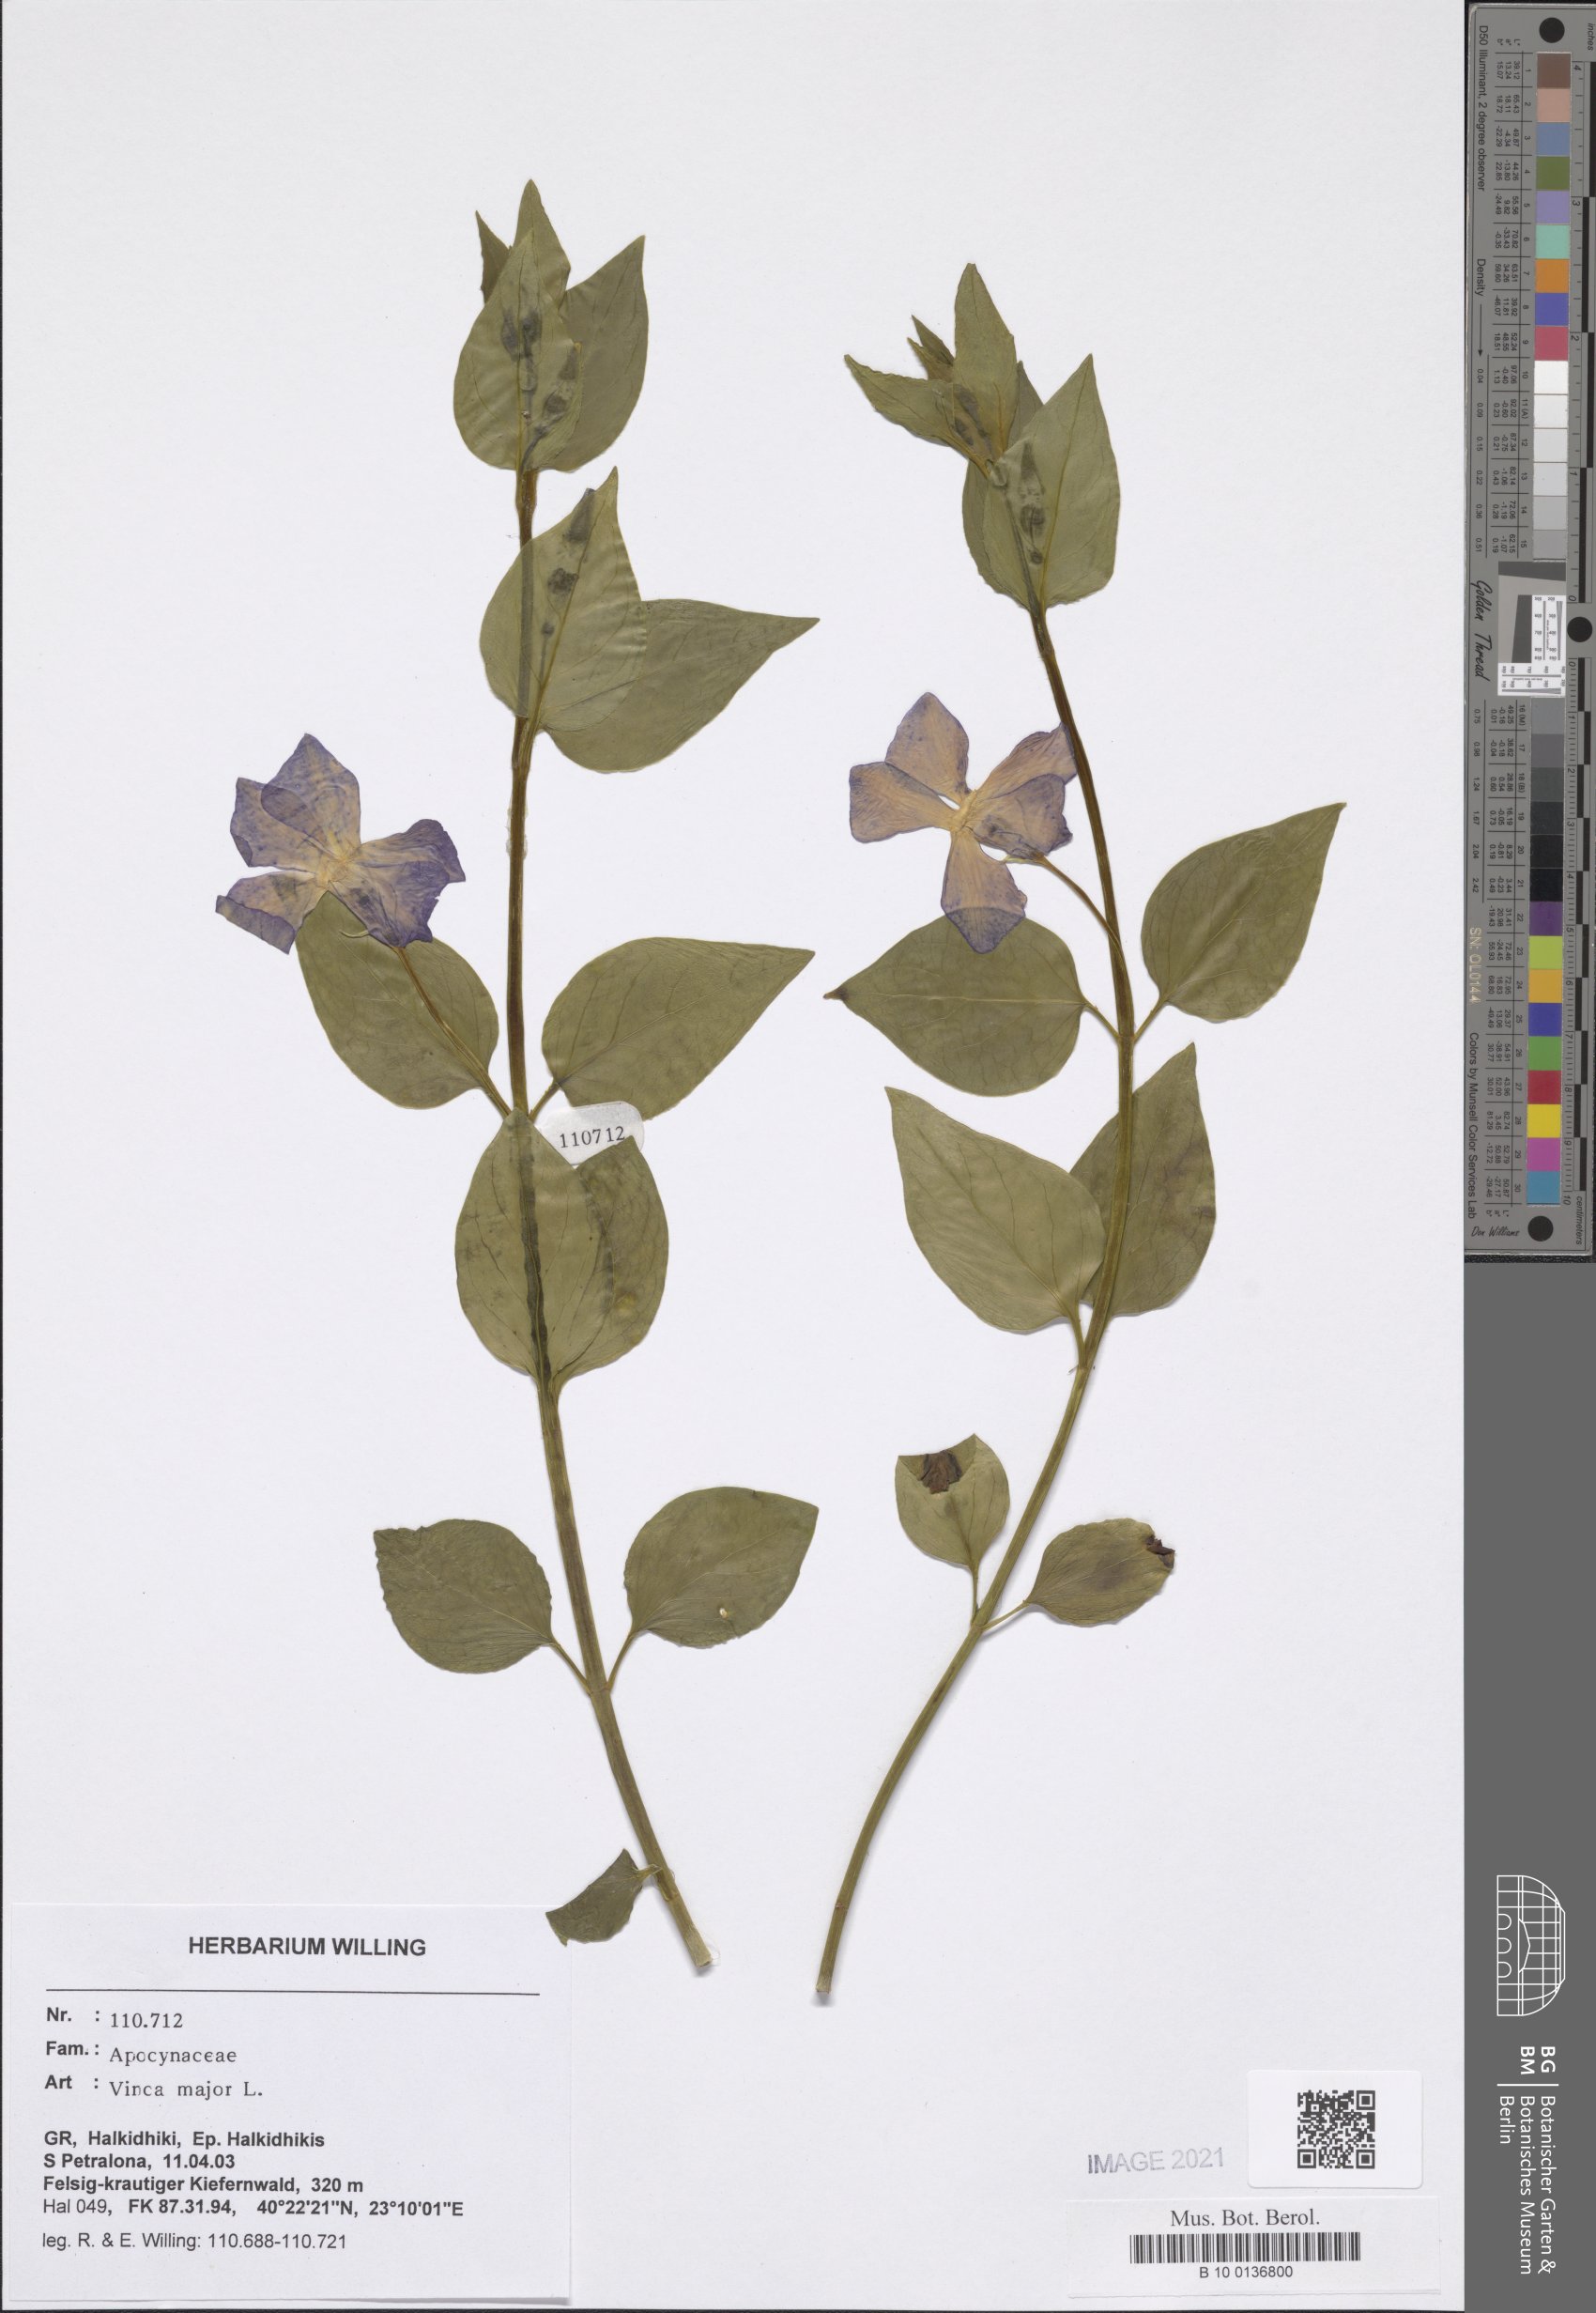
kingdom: Plantae
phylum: Tracheophyta
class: Magnoliopsida
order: Gentianales
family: Apocynaceae
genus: Vinca
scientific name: Vinca major
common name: Greater periwinkle
